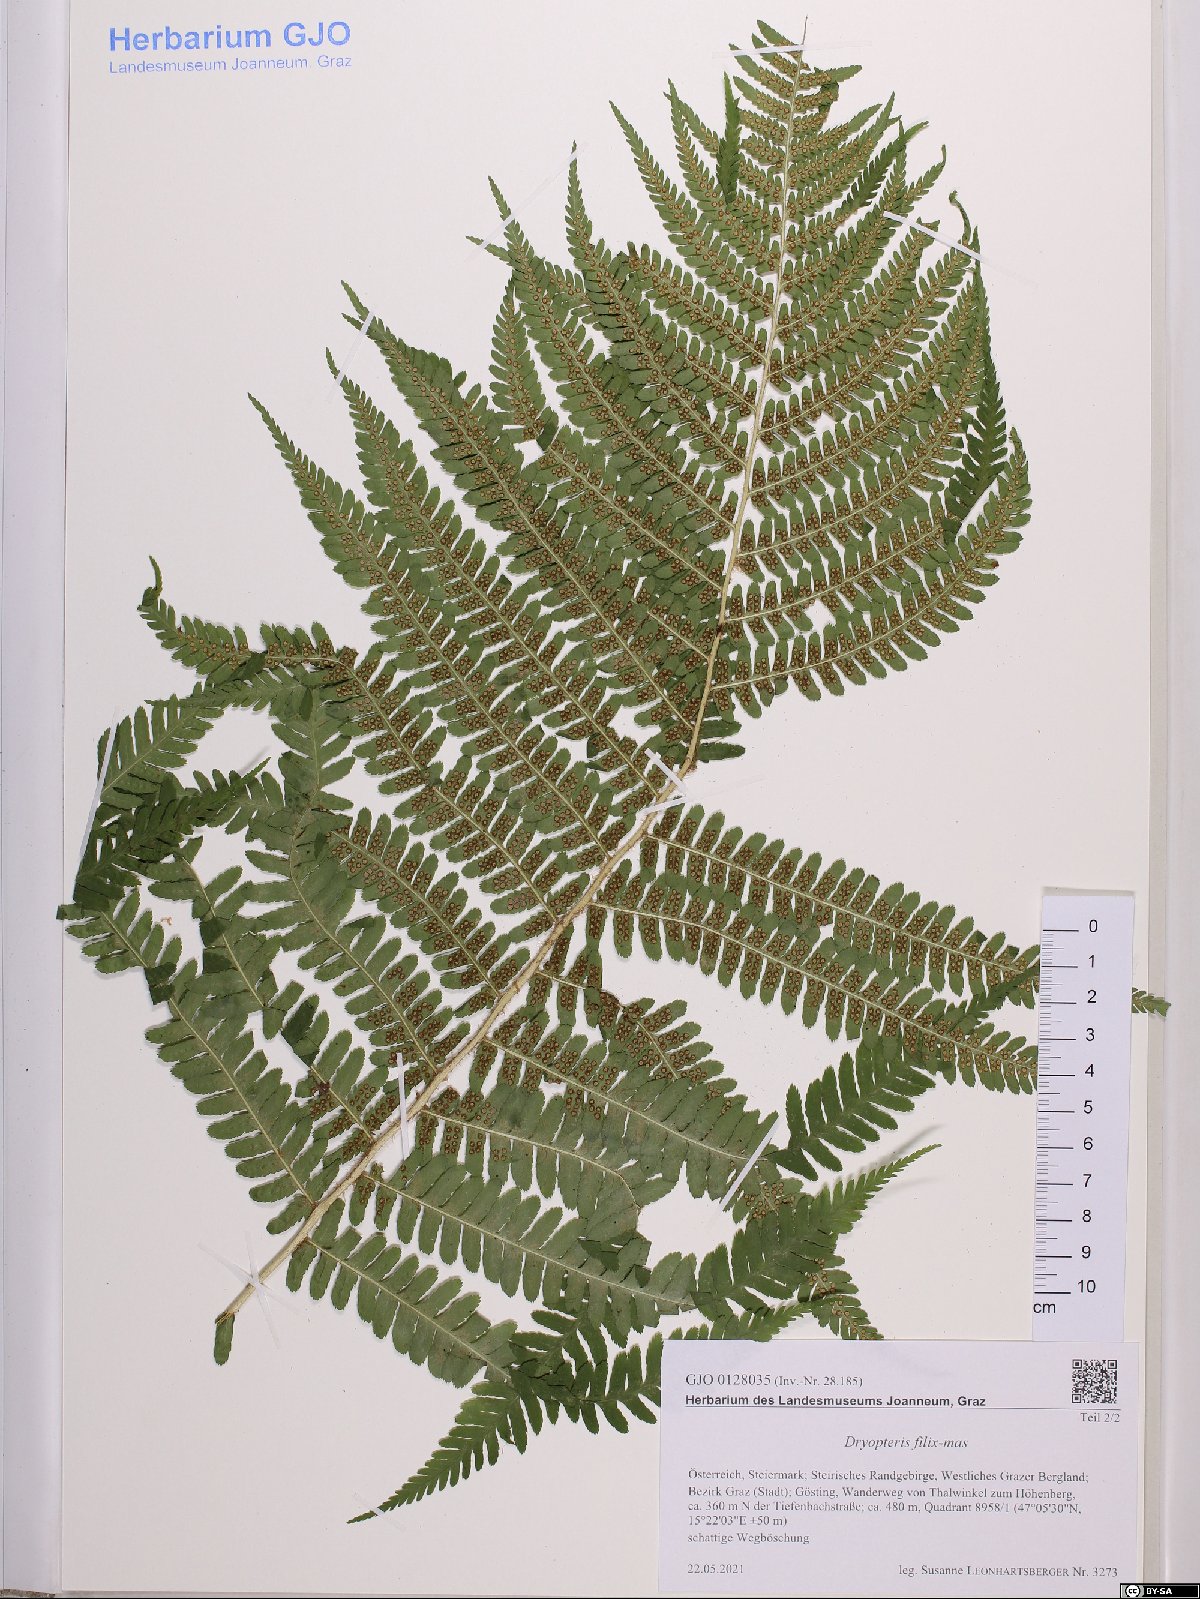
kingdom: Plantae
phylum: Tracheophyta
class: Polypodiopsida
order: Polypodiales
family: Dryopteridaceae
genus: Dryopteris
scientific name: Dryopteris filix-mas
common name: Male fern
